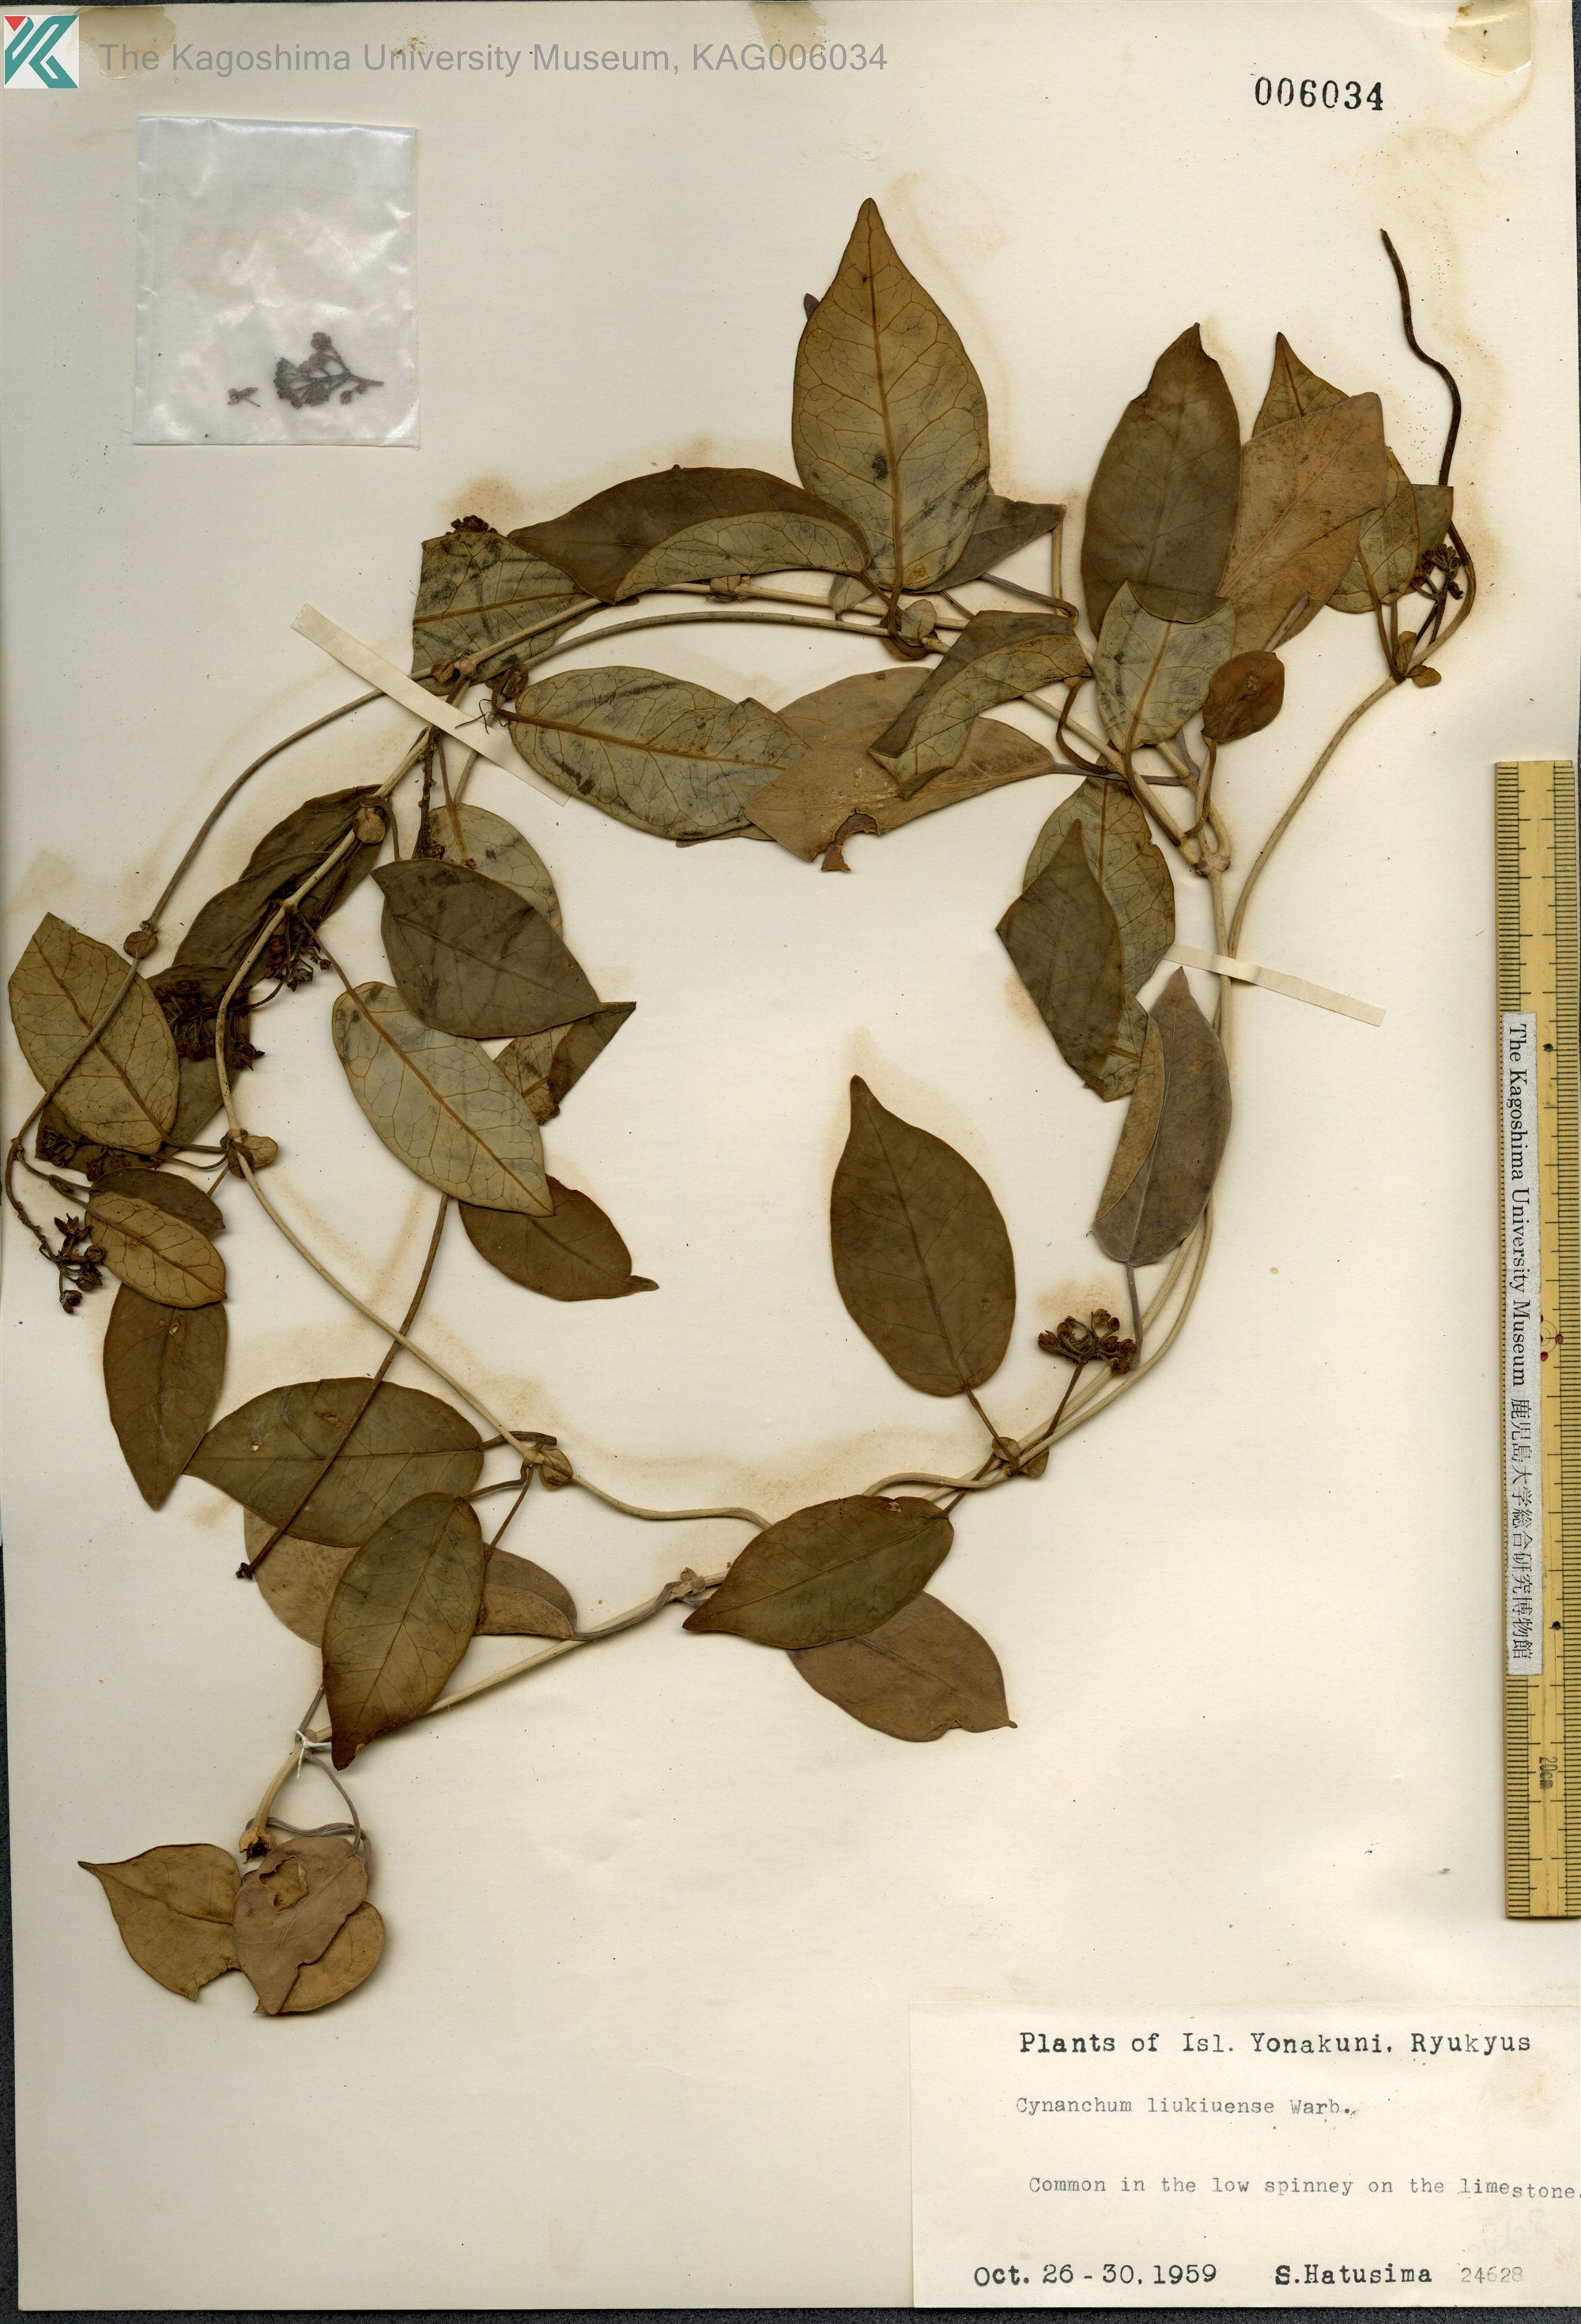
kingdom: Plantae
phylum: Tracheophyta
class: Magnoliopsida
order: Gentianales
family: Apocynaceae
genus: Cynanchum
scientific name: Cynanchum liukiuense
